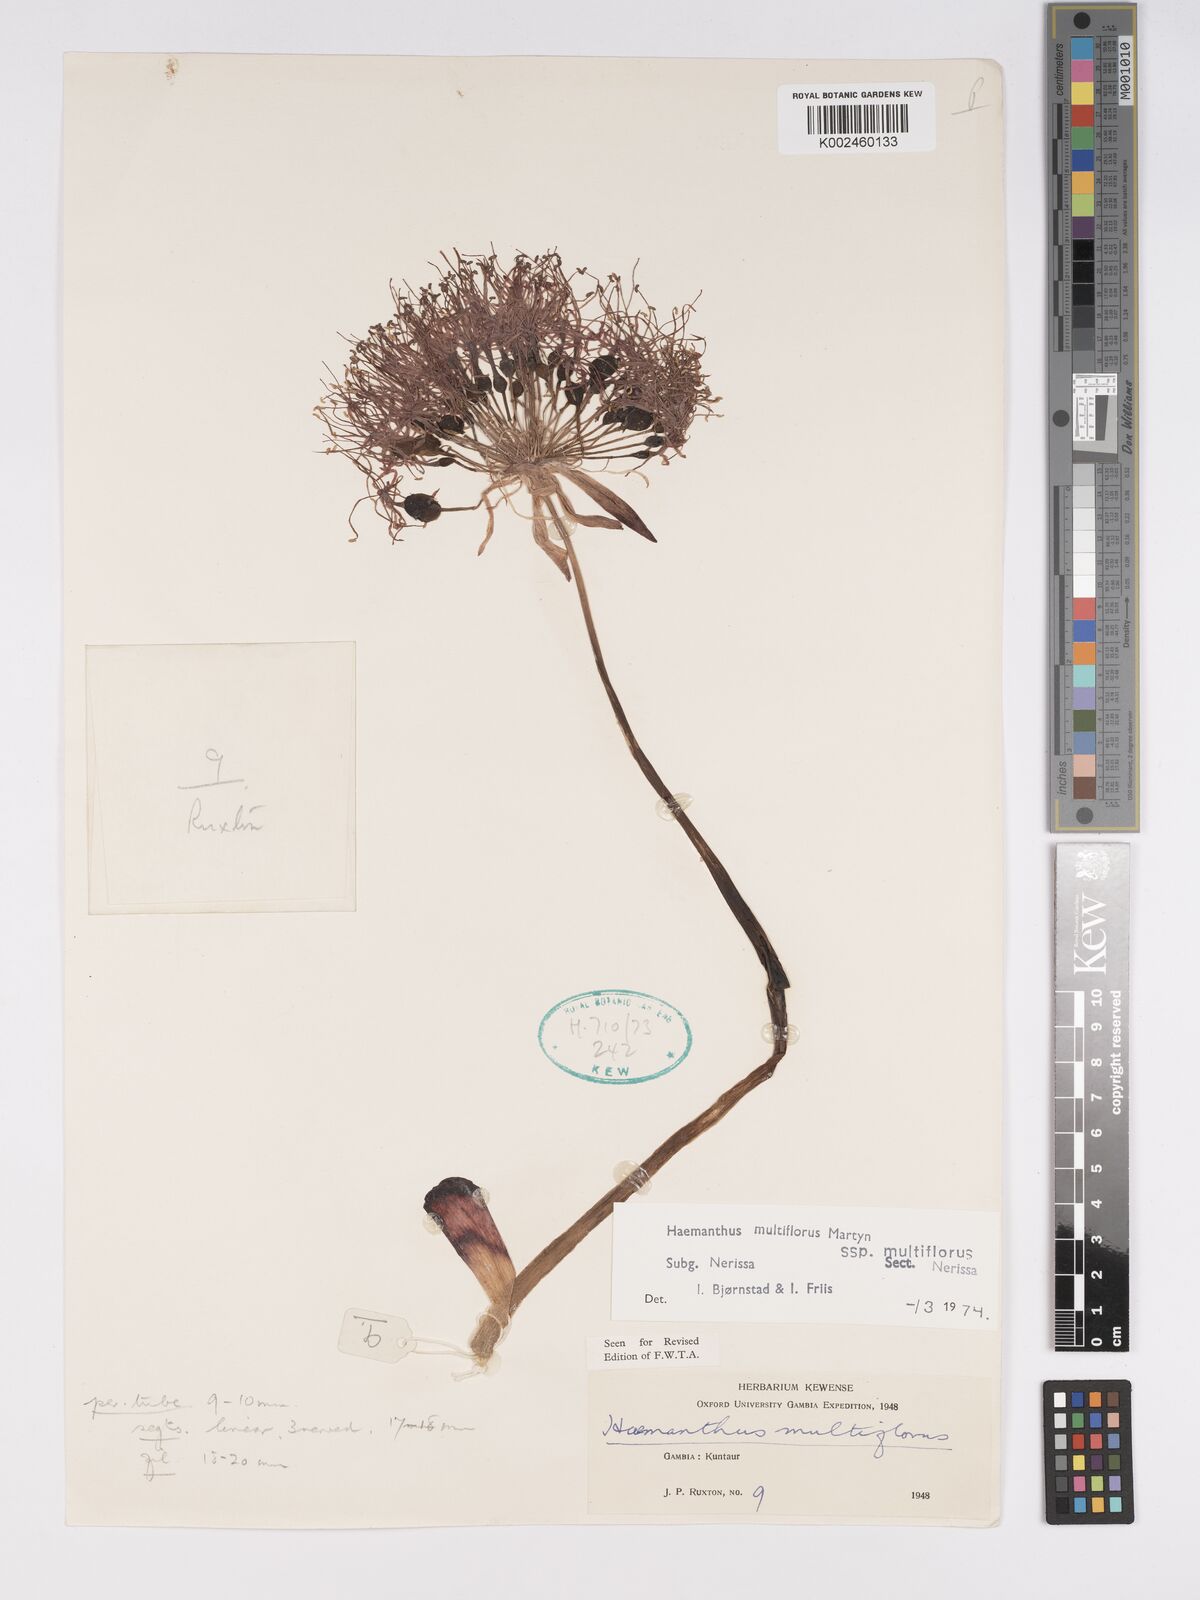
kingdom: Plantae
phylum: Tracheophyta
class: Liliopsida
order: Asparagales
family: Amaryllidaceae
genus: Scadoxus
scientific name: Scadoxus multiflorus
